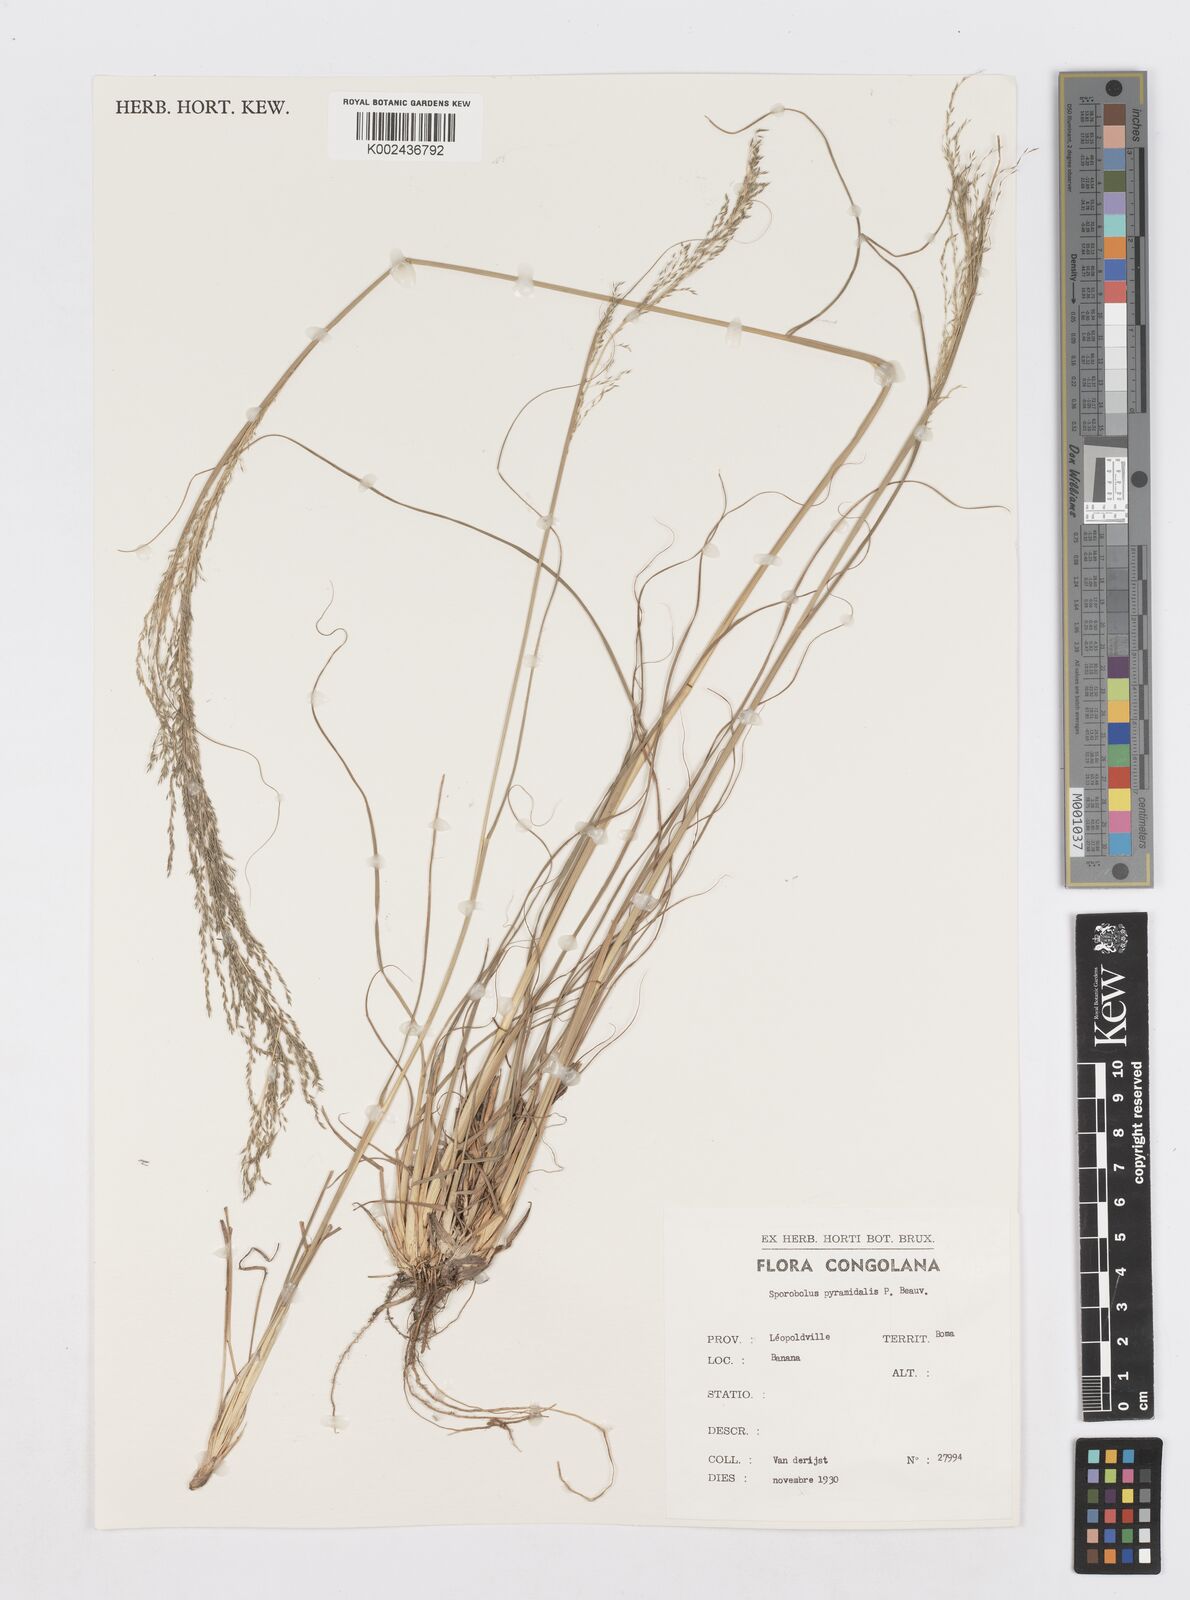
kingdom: Plantae
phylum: Tracheophyta
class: Liliopsida
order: Poales
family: Poaceae
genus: Sporobolus
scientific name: Sporobolus pyramidalis
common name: West indian dropseed
